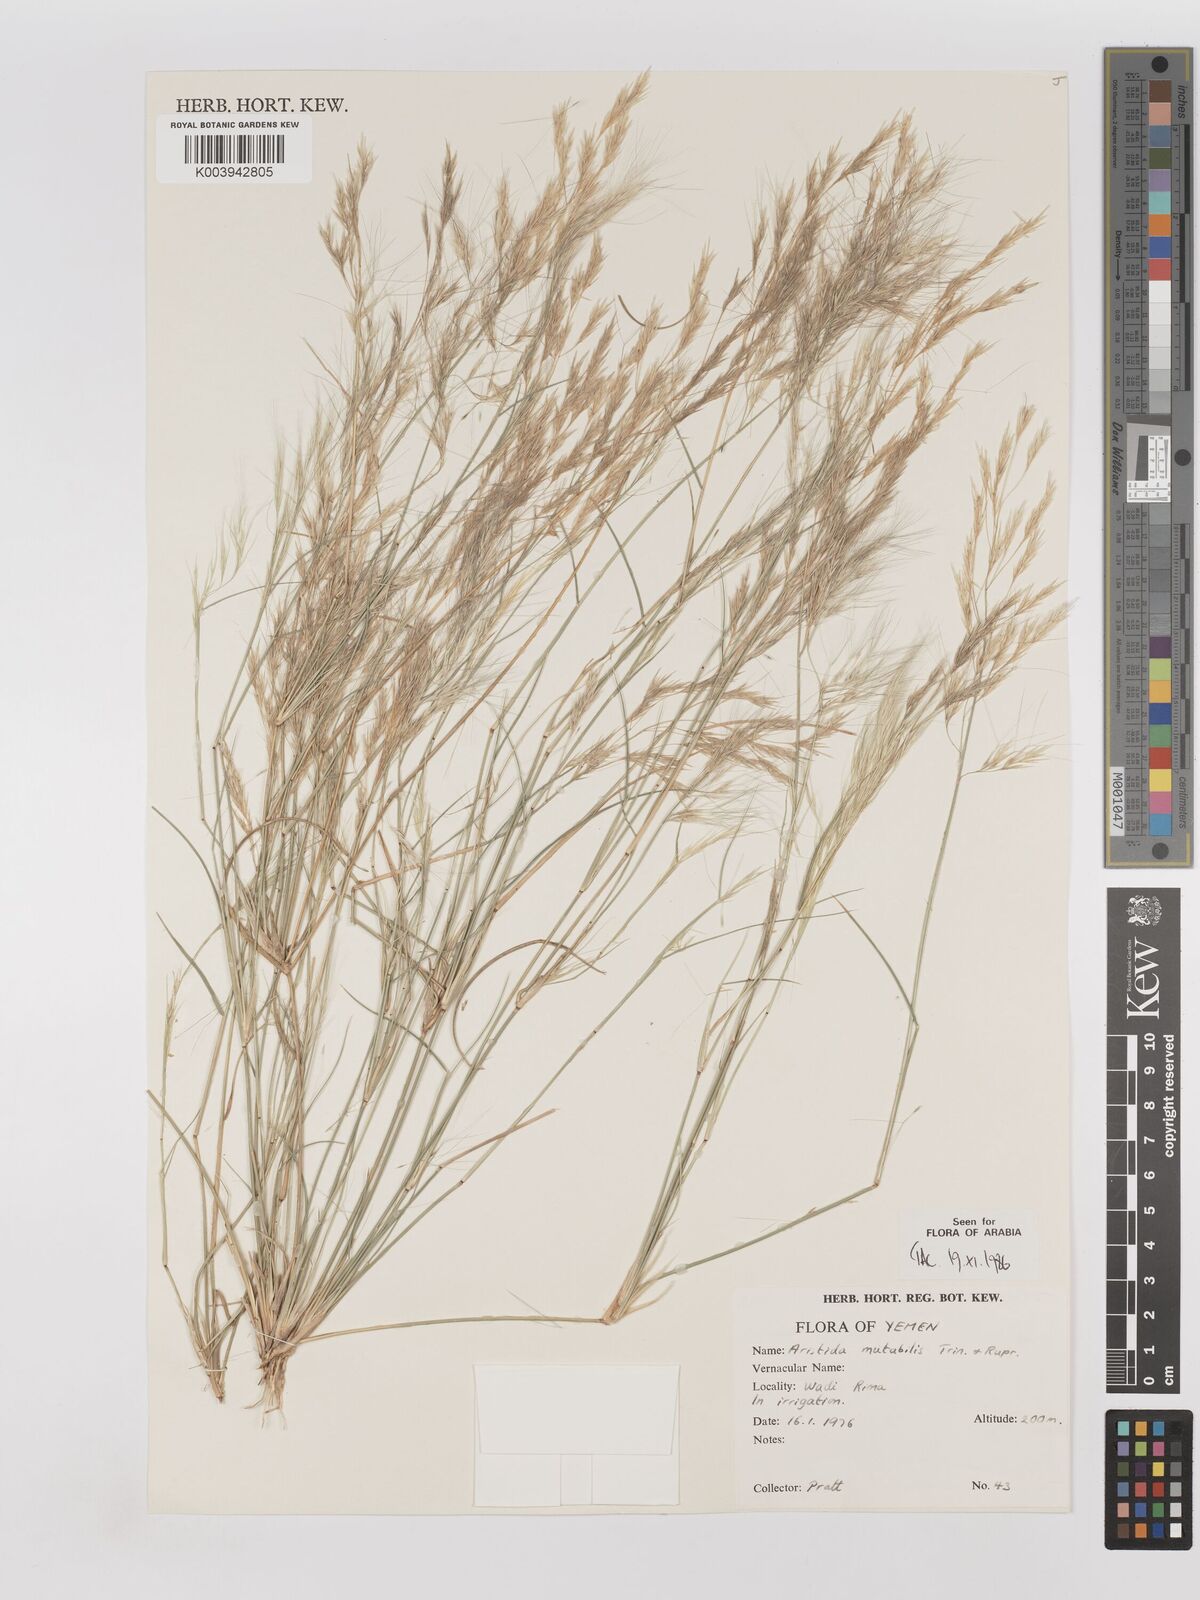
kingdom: Plantae
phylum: Tracheophyta
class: Liliopsida
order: Poales
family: Poaceae
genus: Aristida
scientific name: Aristida mutabilis
